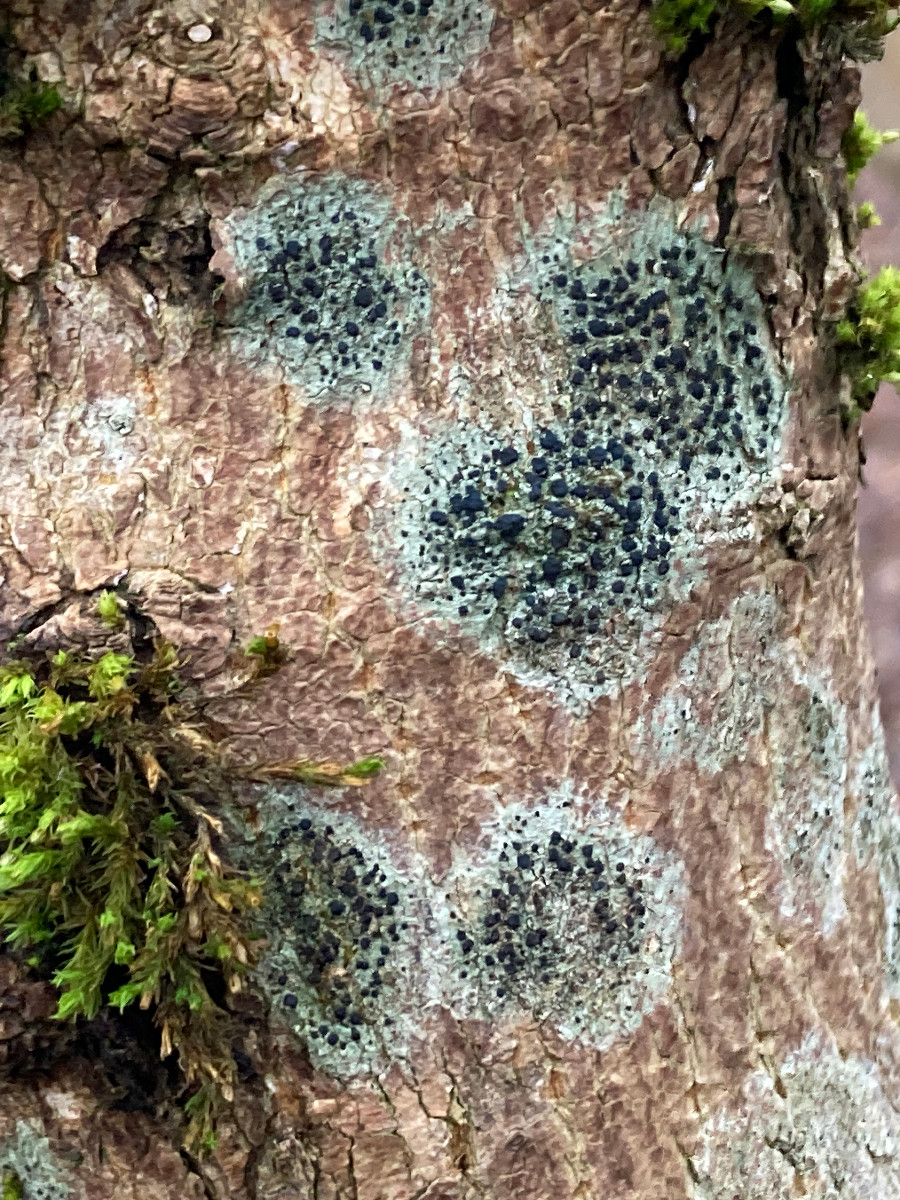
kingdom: Fungi
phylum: Ascomycota
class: Lecanoromycetes
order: Lecanorales
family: Lecanoraceae
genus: Lecidella
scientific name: Lecidella elaeochroma
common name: grågrøn skivelav
